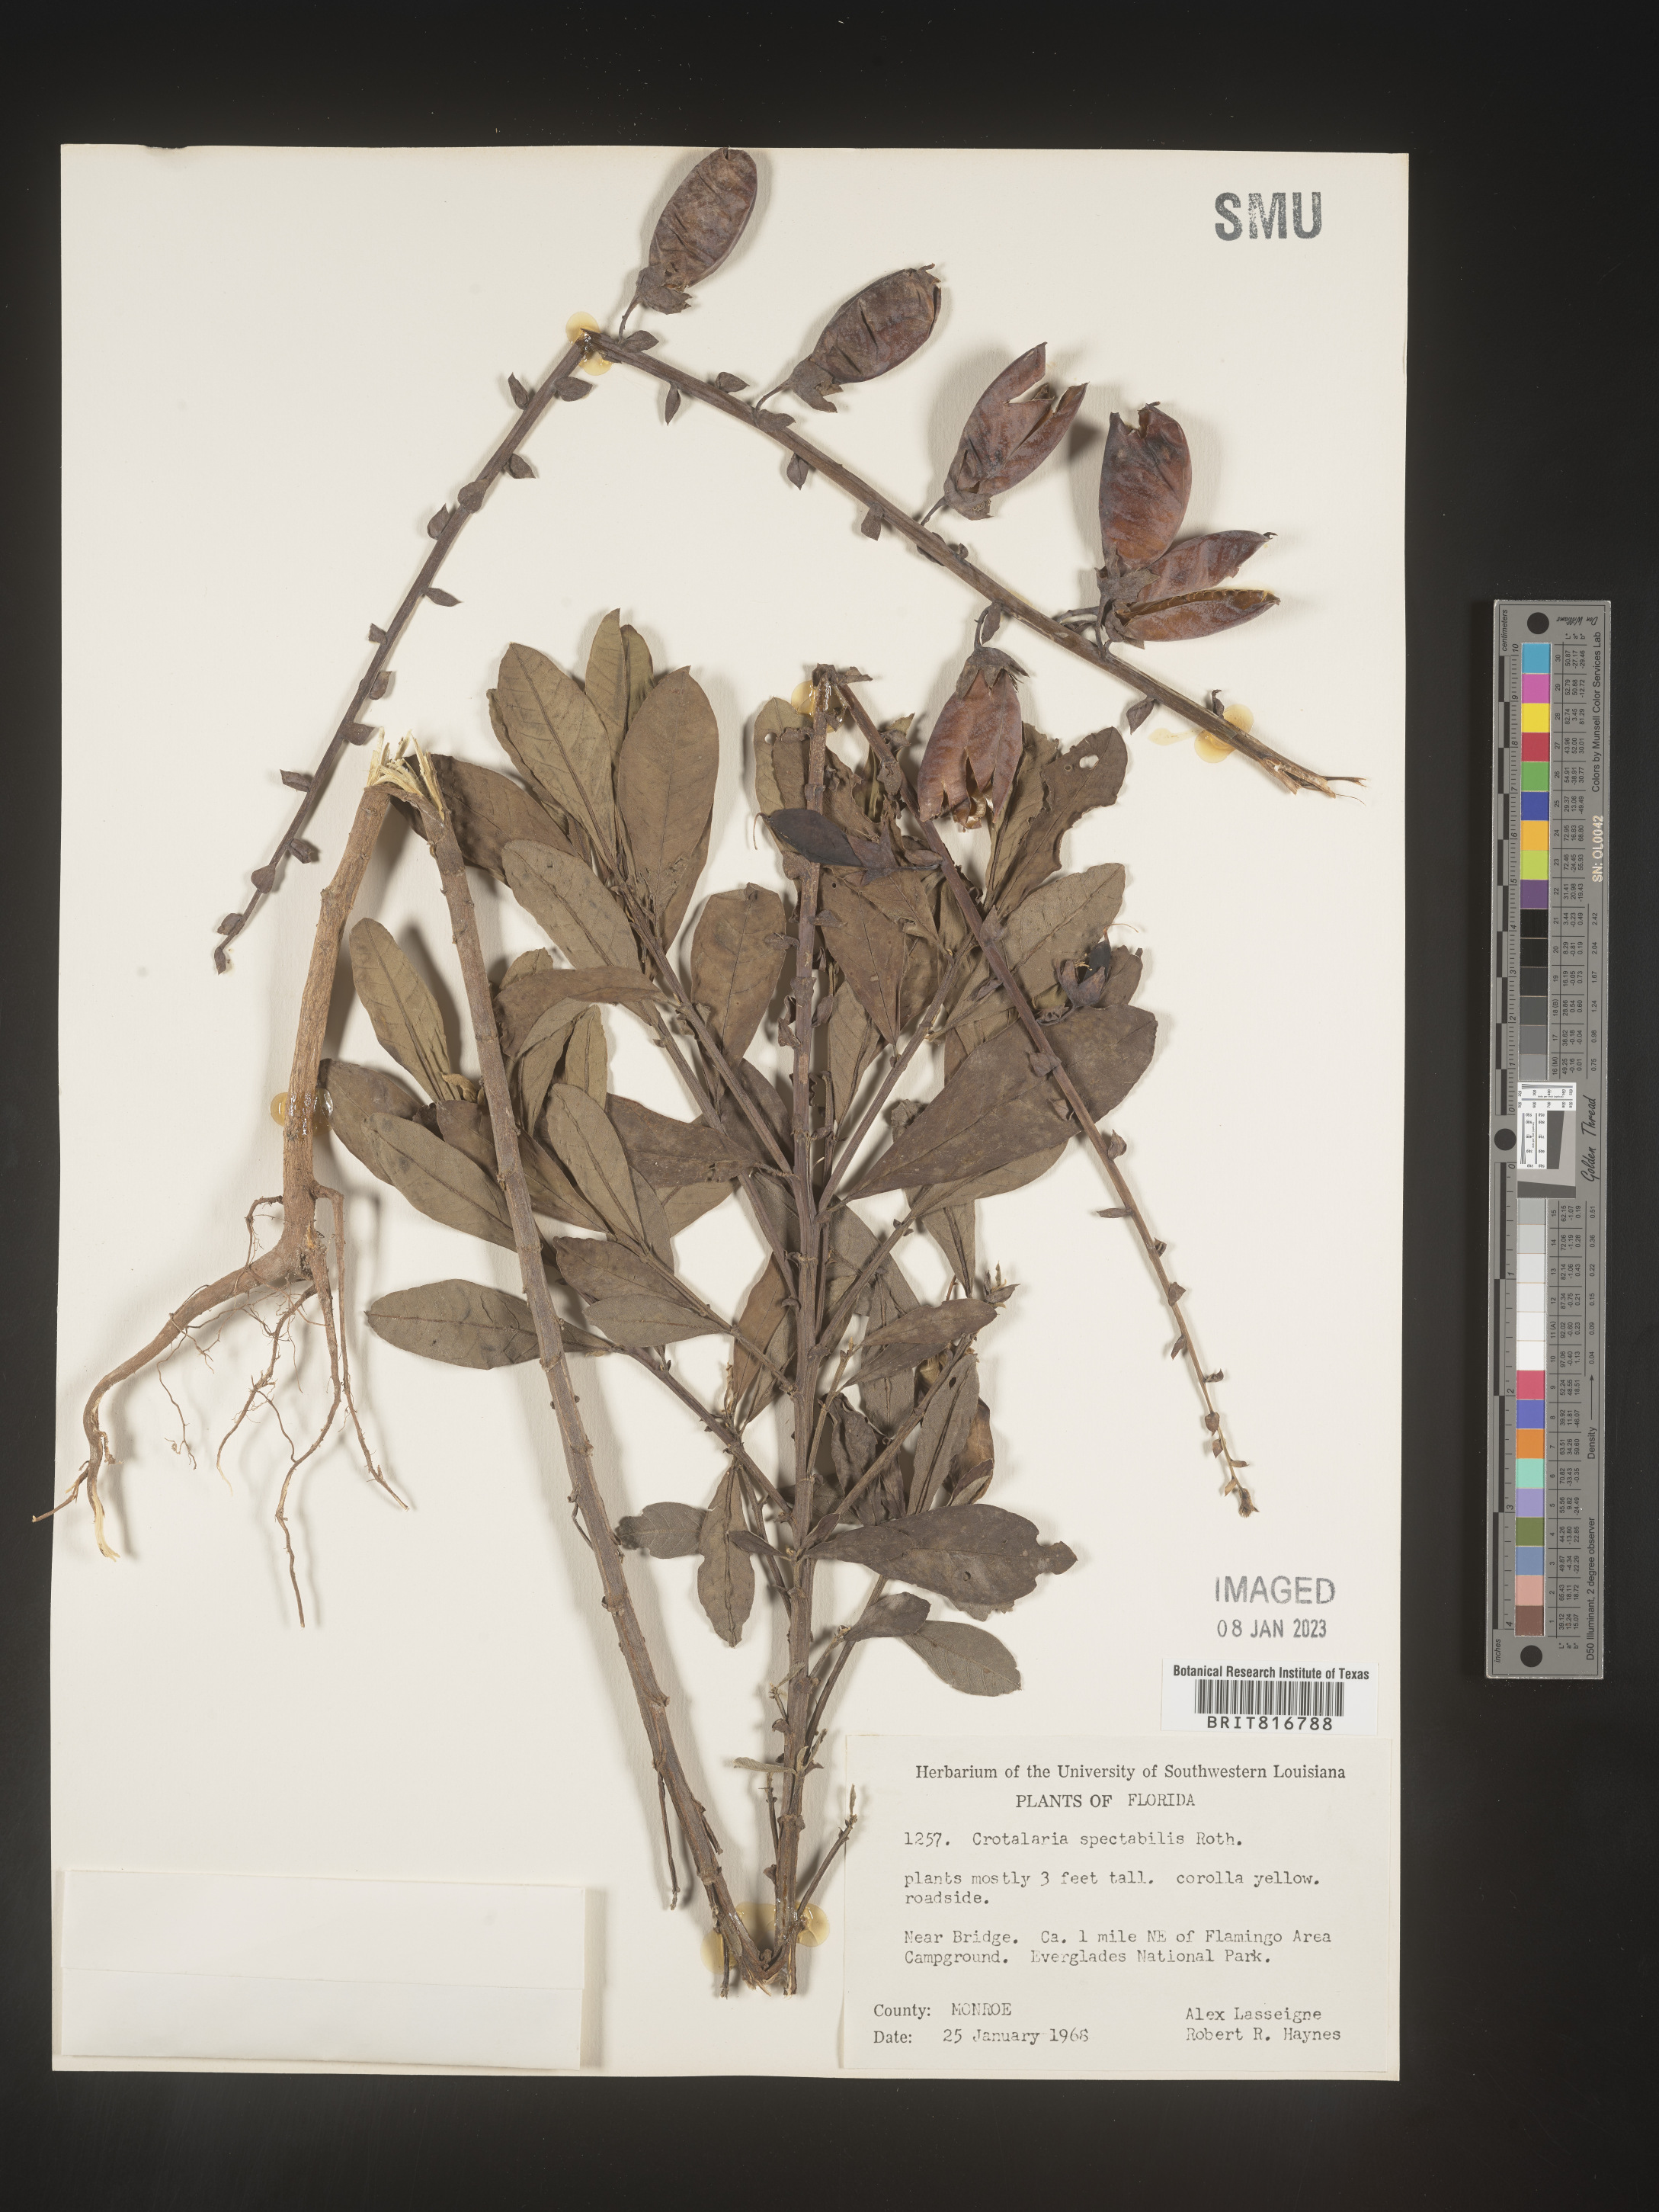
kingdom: Plantae
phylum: Tracheophyta
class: Magnoliopsida
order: Fabales
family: Fabaceae
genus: Crotalaria
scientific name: Crotalaria spectabilis
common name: Showy rattlebox
